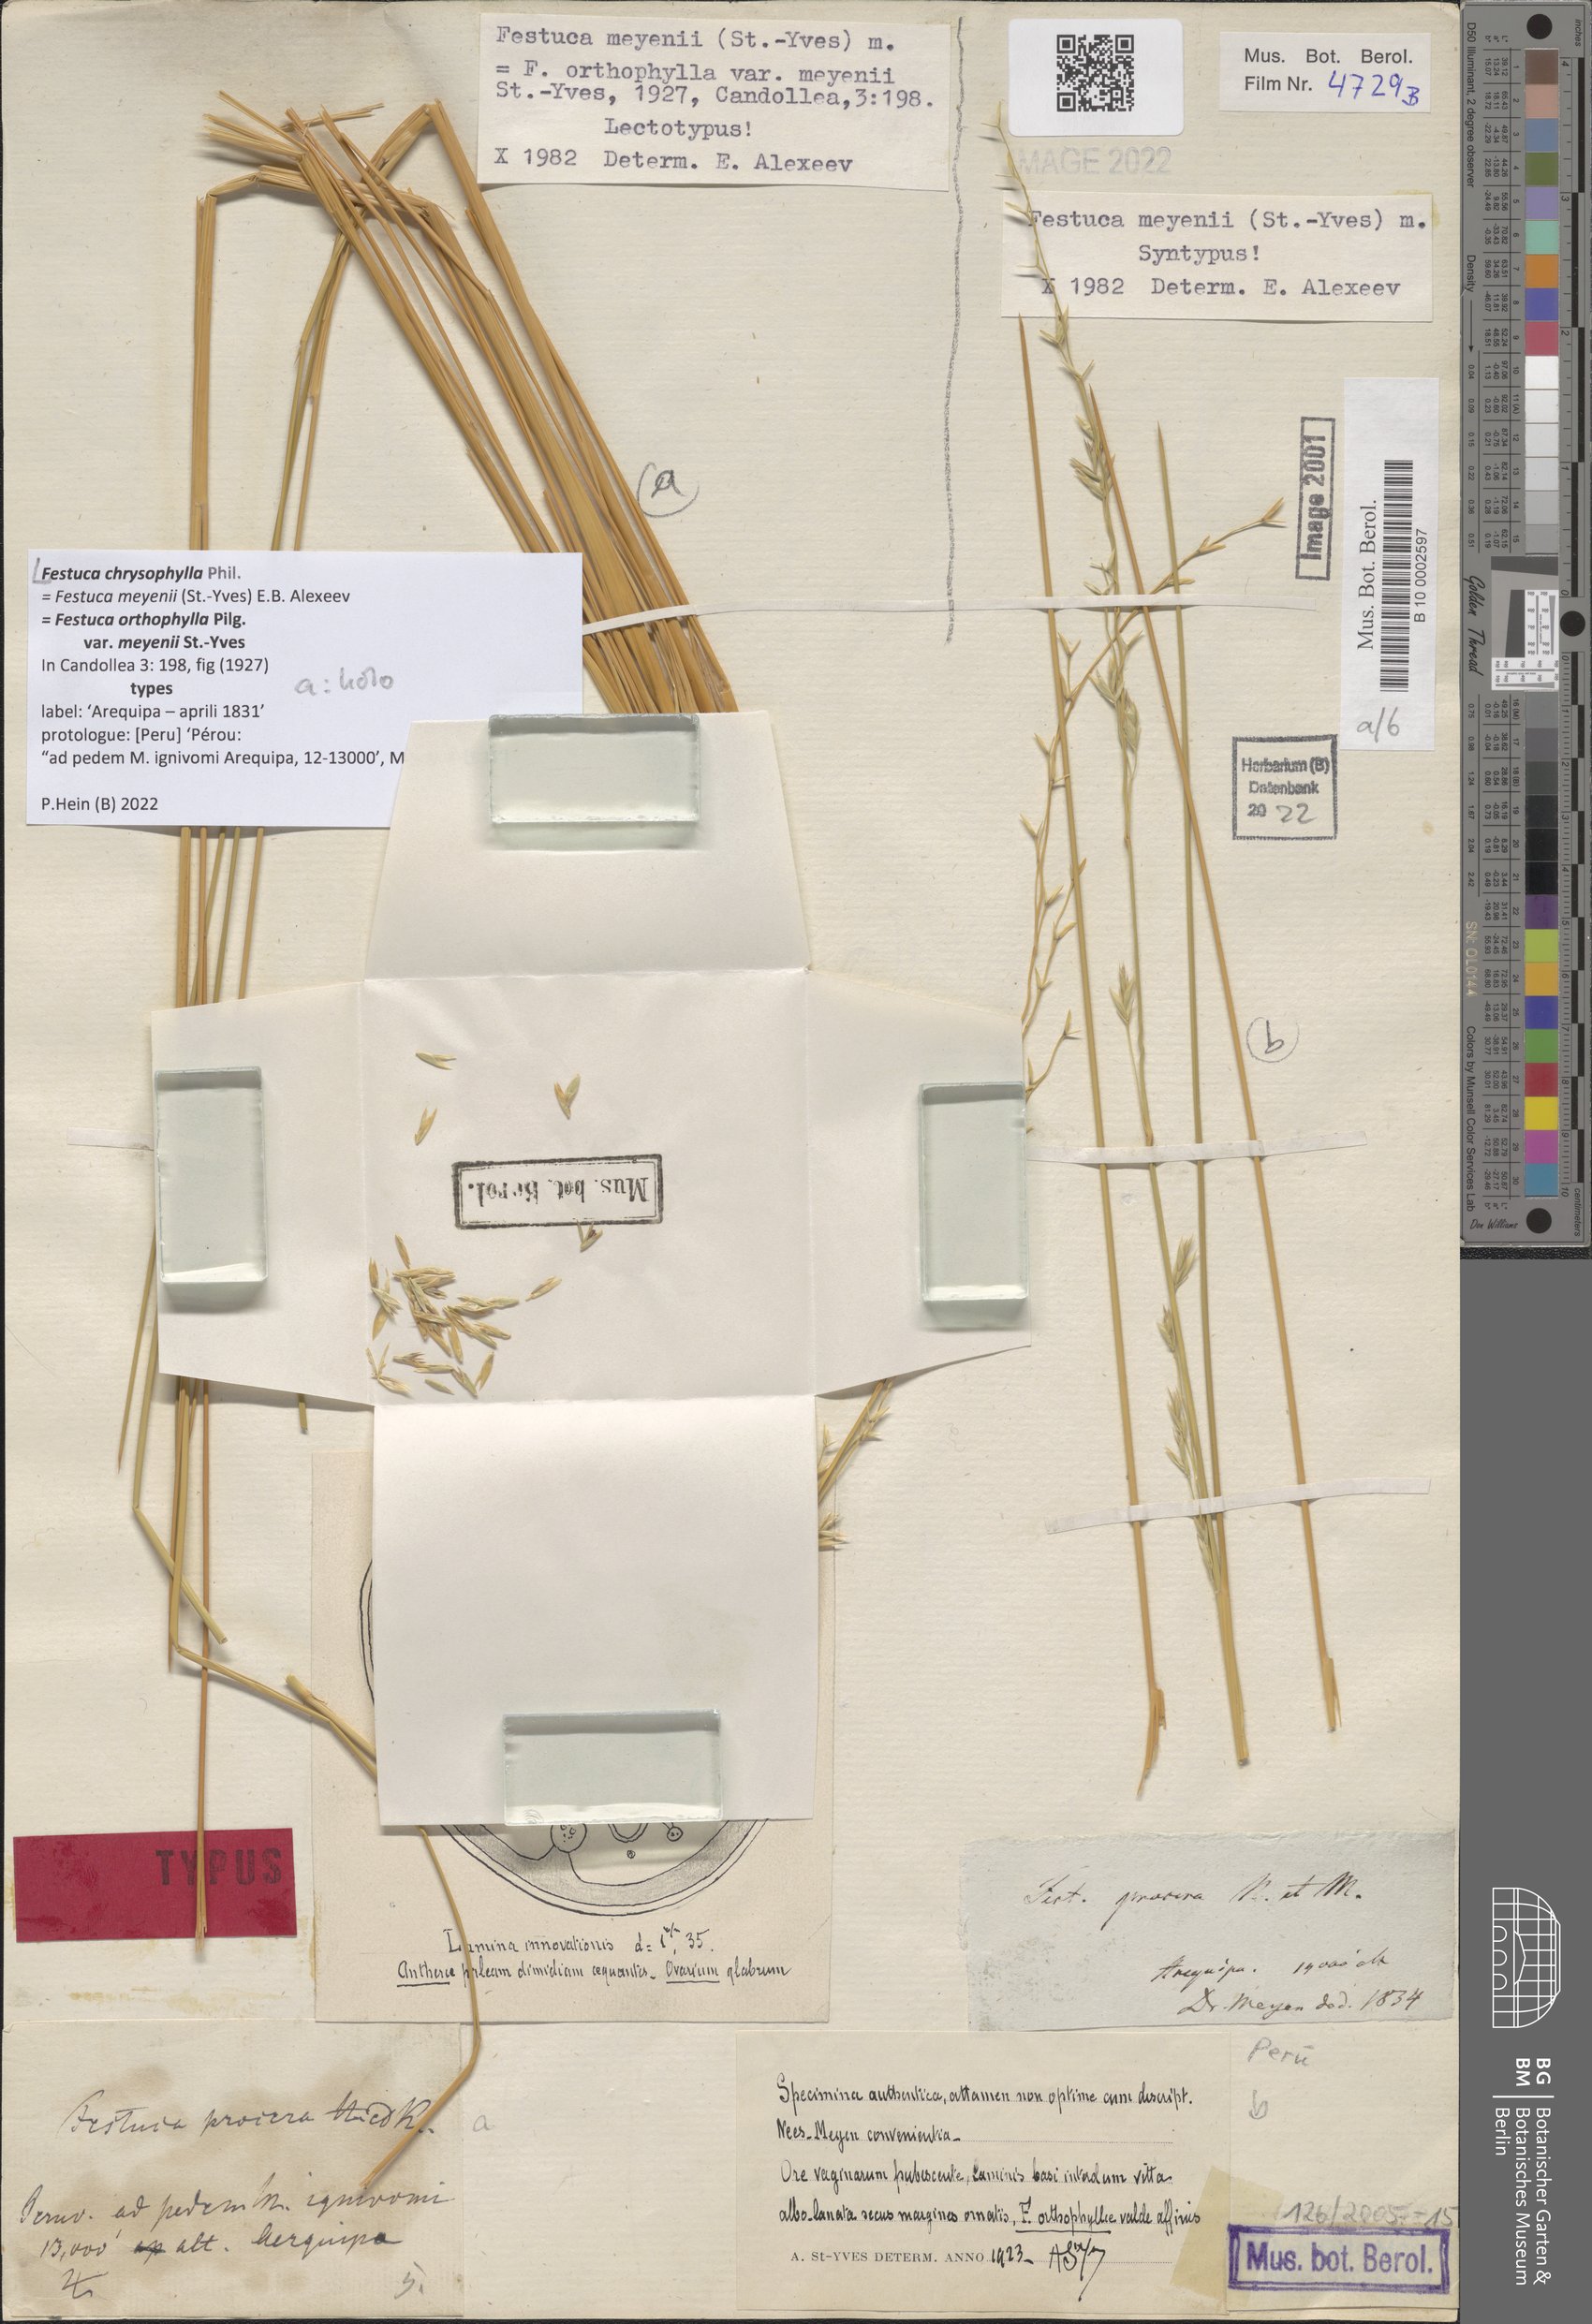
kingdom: Plantae
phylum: Tracheophyta
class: Liliopsida
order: Poales
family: Poaceae
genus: Festuca
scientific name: Festuca chrysophylla
